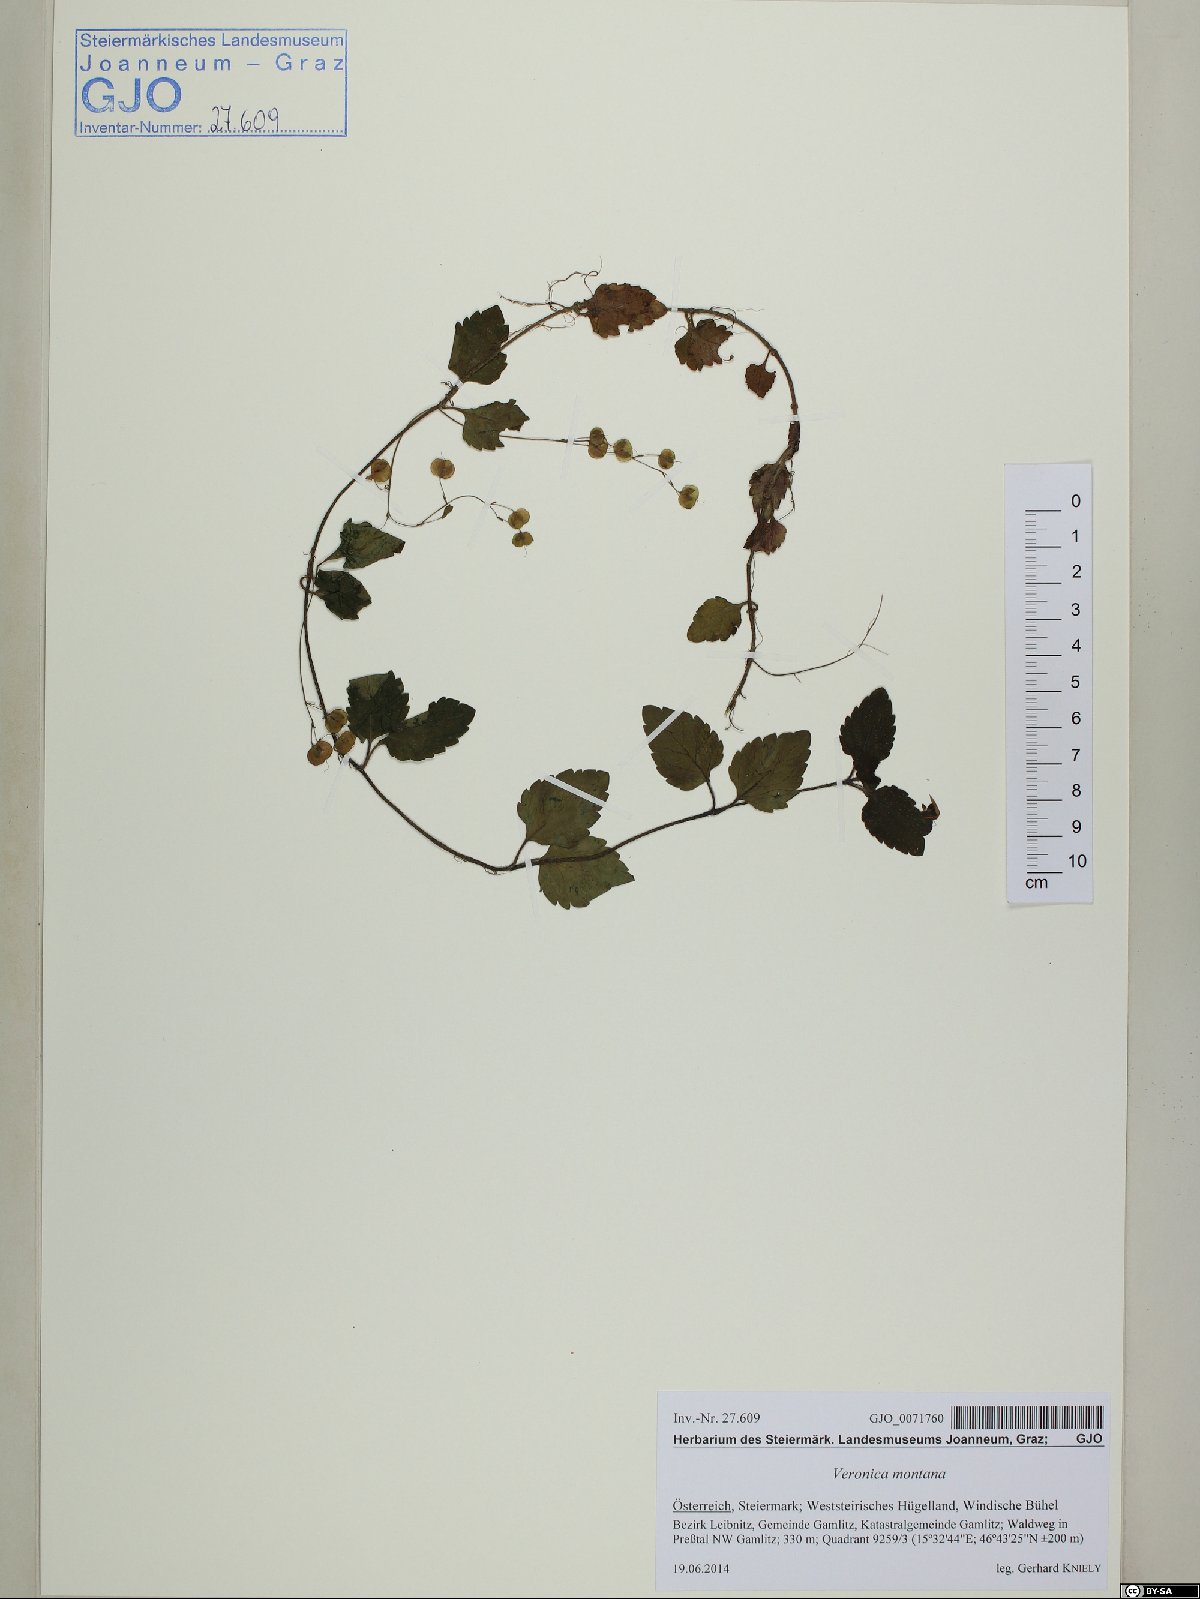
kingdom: Plantae
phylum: Tracheophyta
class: Magnoliopsida
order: Lamiales
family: Plantaginaceae
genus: Veronica
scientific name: Veronica montana
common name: Wood speedwell
